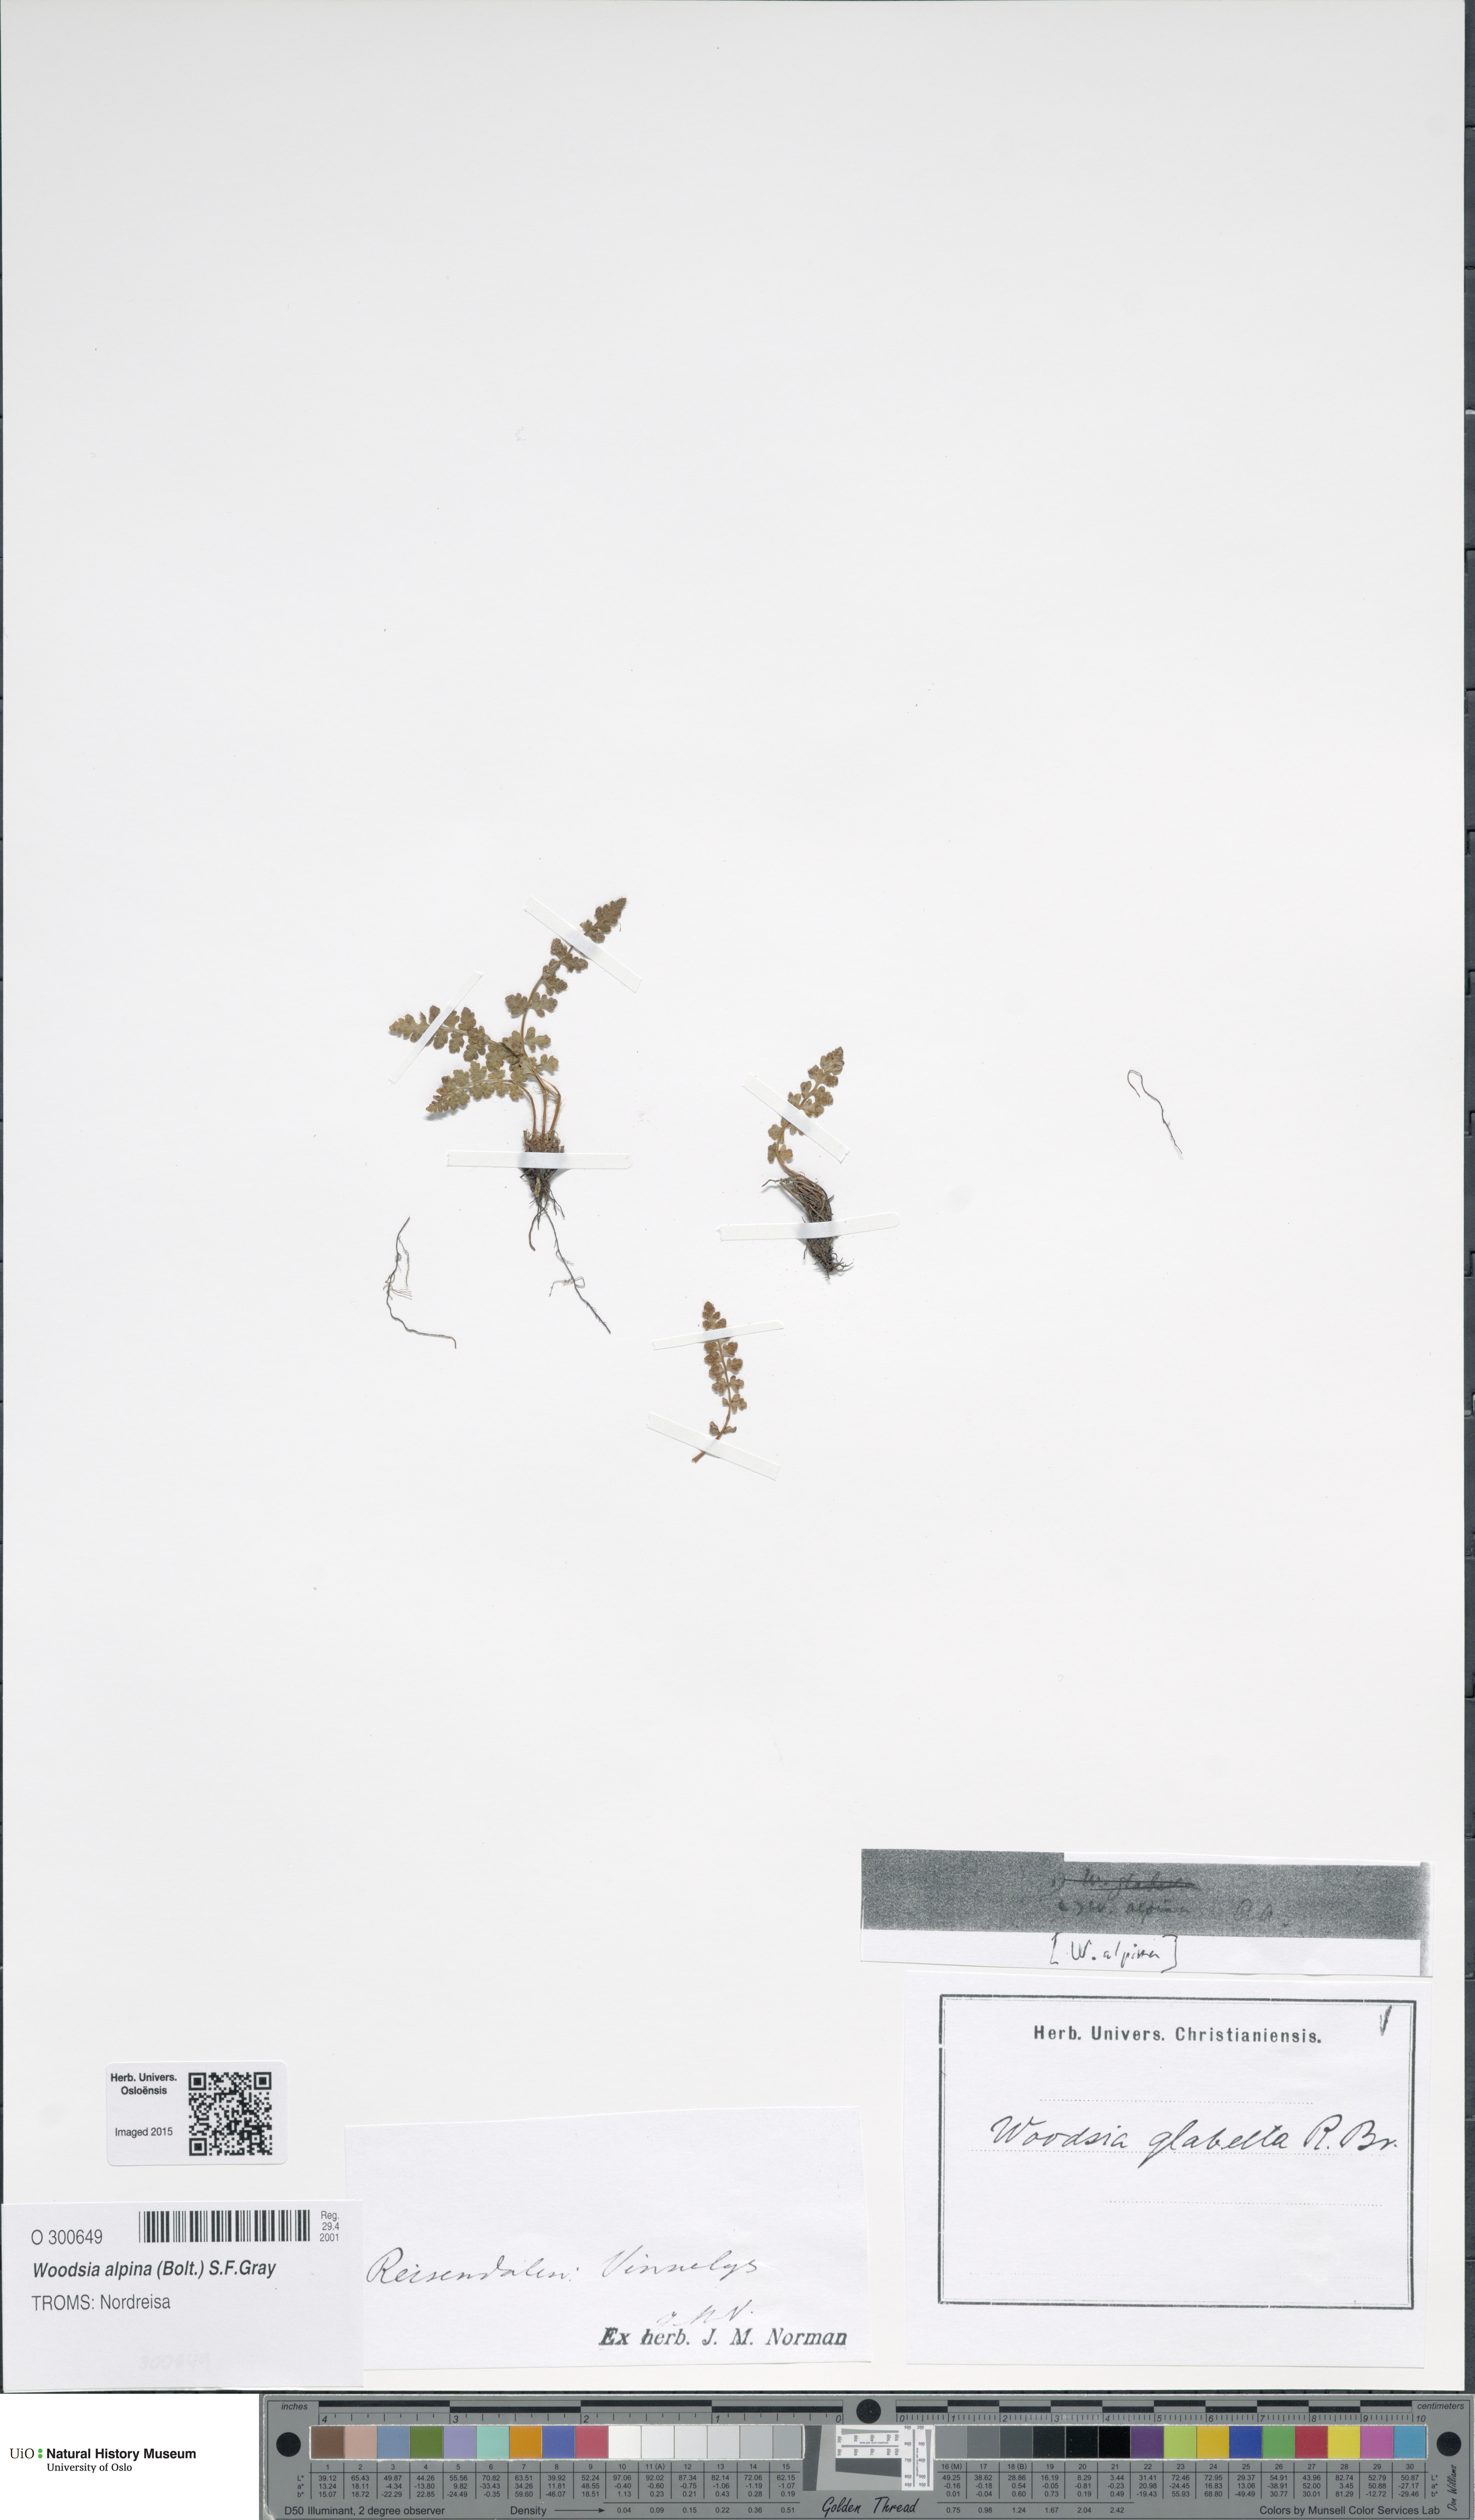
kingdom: Plantae
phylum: Tracheophyta
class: Polypodiopsida
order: Polypodiales
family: Woodsiaceae
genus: Woodsia
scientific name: Woodsia alpina
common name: Alpine woodsia
